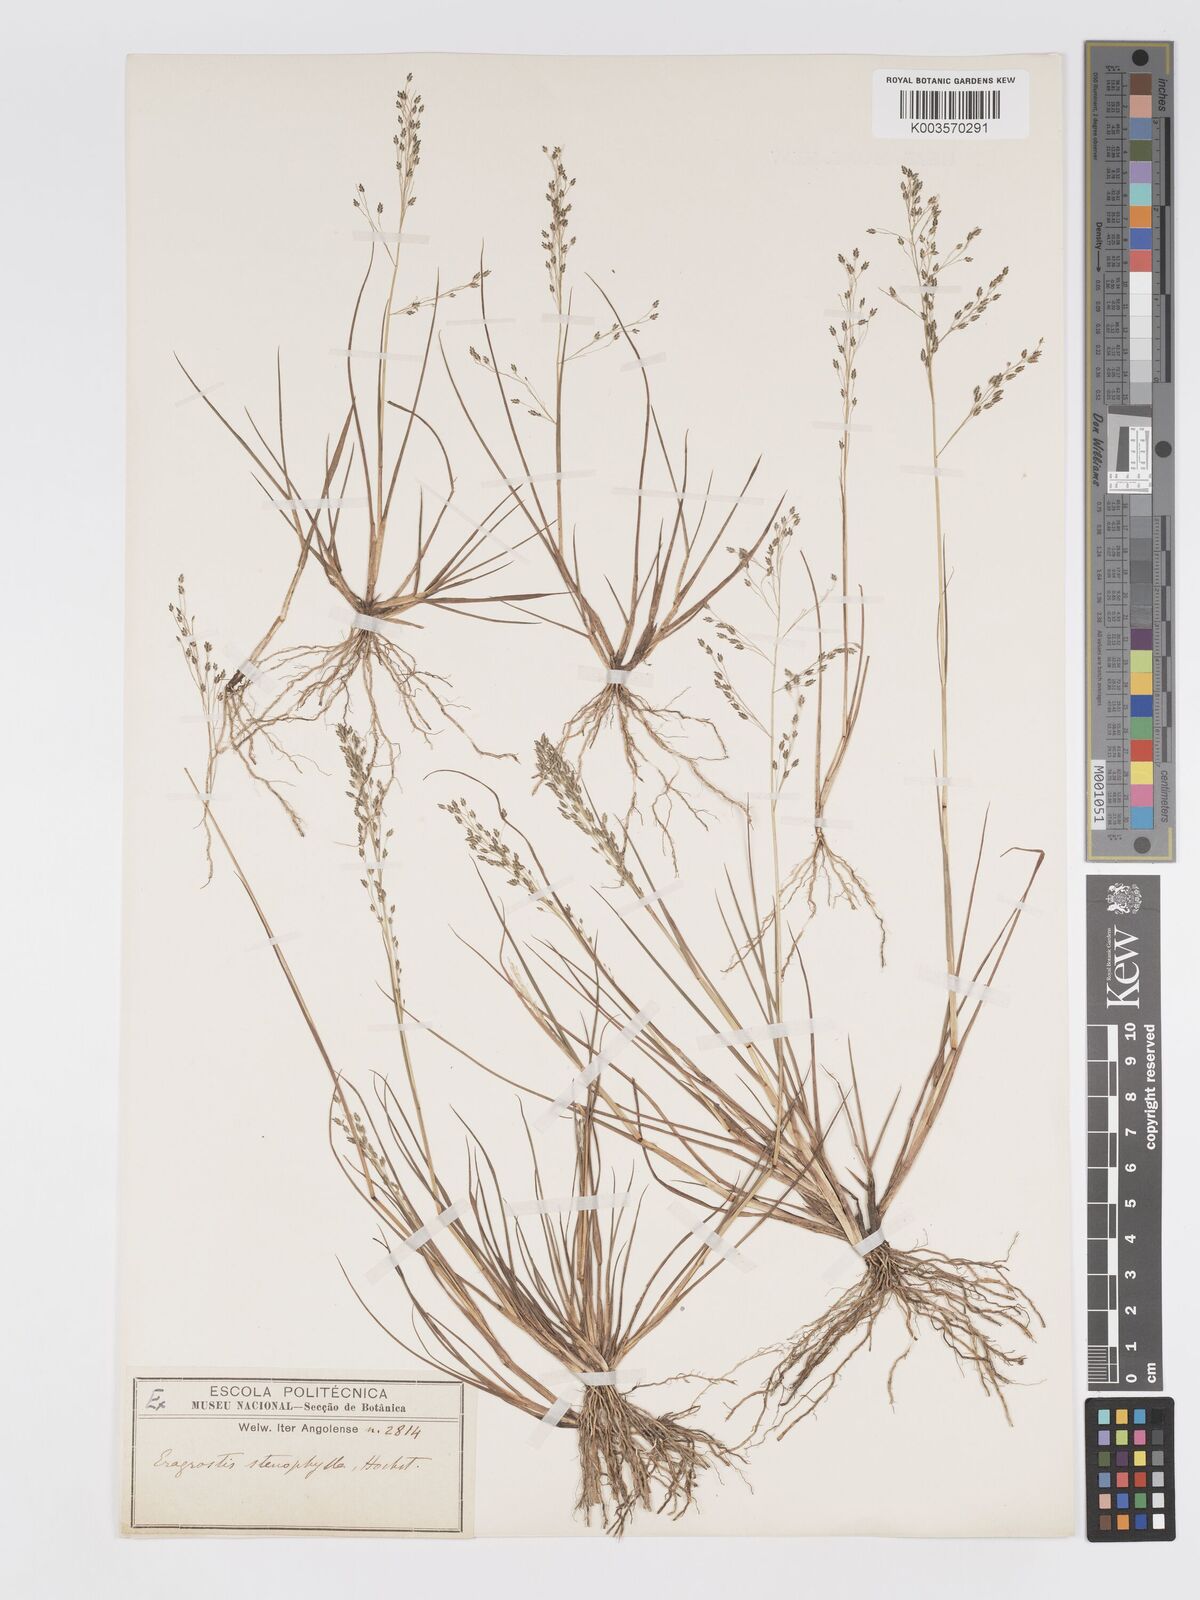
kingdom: Plantae
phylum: Tracheophyta
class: Liliopsida
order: Poales
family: Poaceae
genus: Eragrostis
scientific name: Eragrostis gangetica
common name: Slimflower lovegrass
